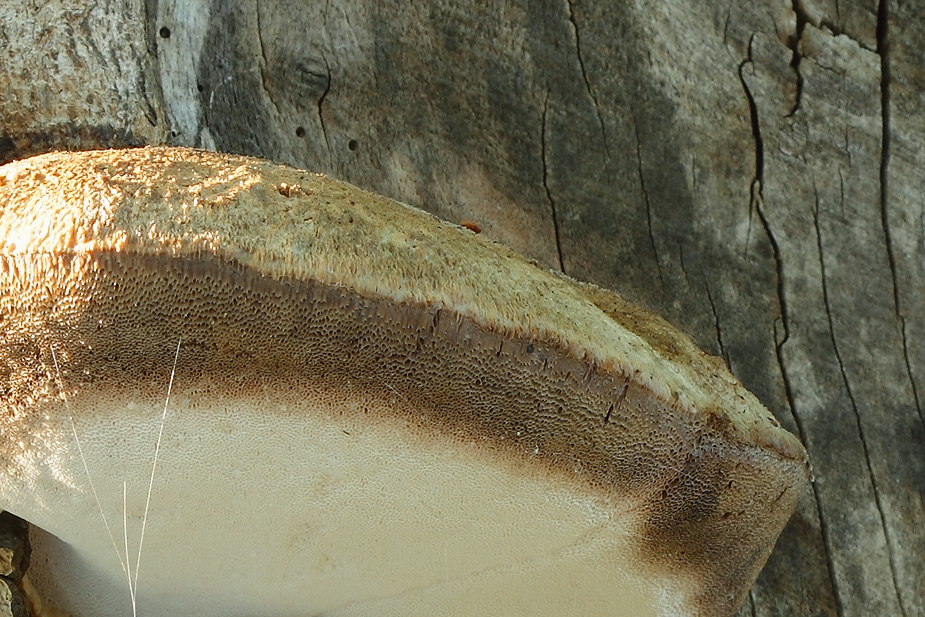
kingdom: Fungi
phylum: Basidiomycota
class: Agaricomycetes
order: Polyporales
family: Meruliaceae
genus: Pappia
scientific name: Pappia fissilis
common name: sej fedtporesvamp
